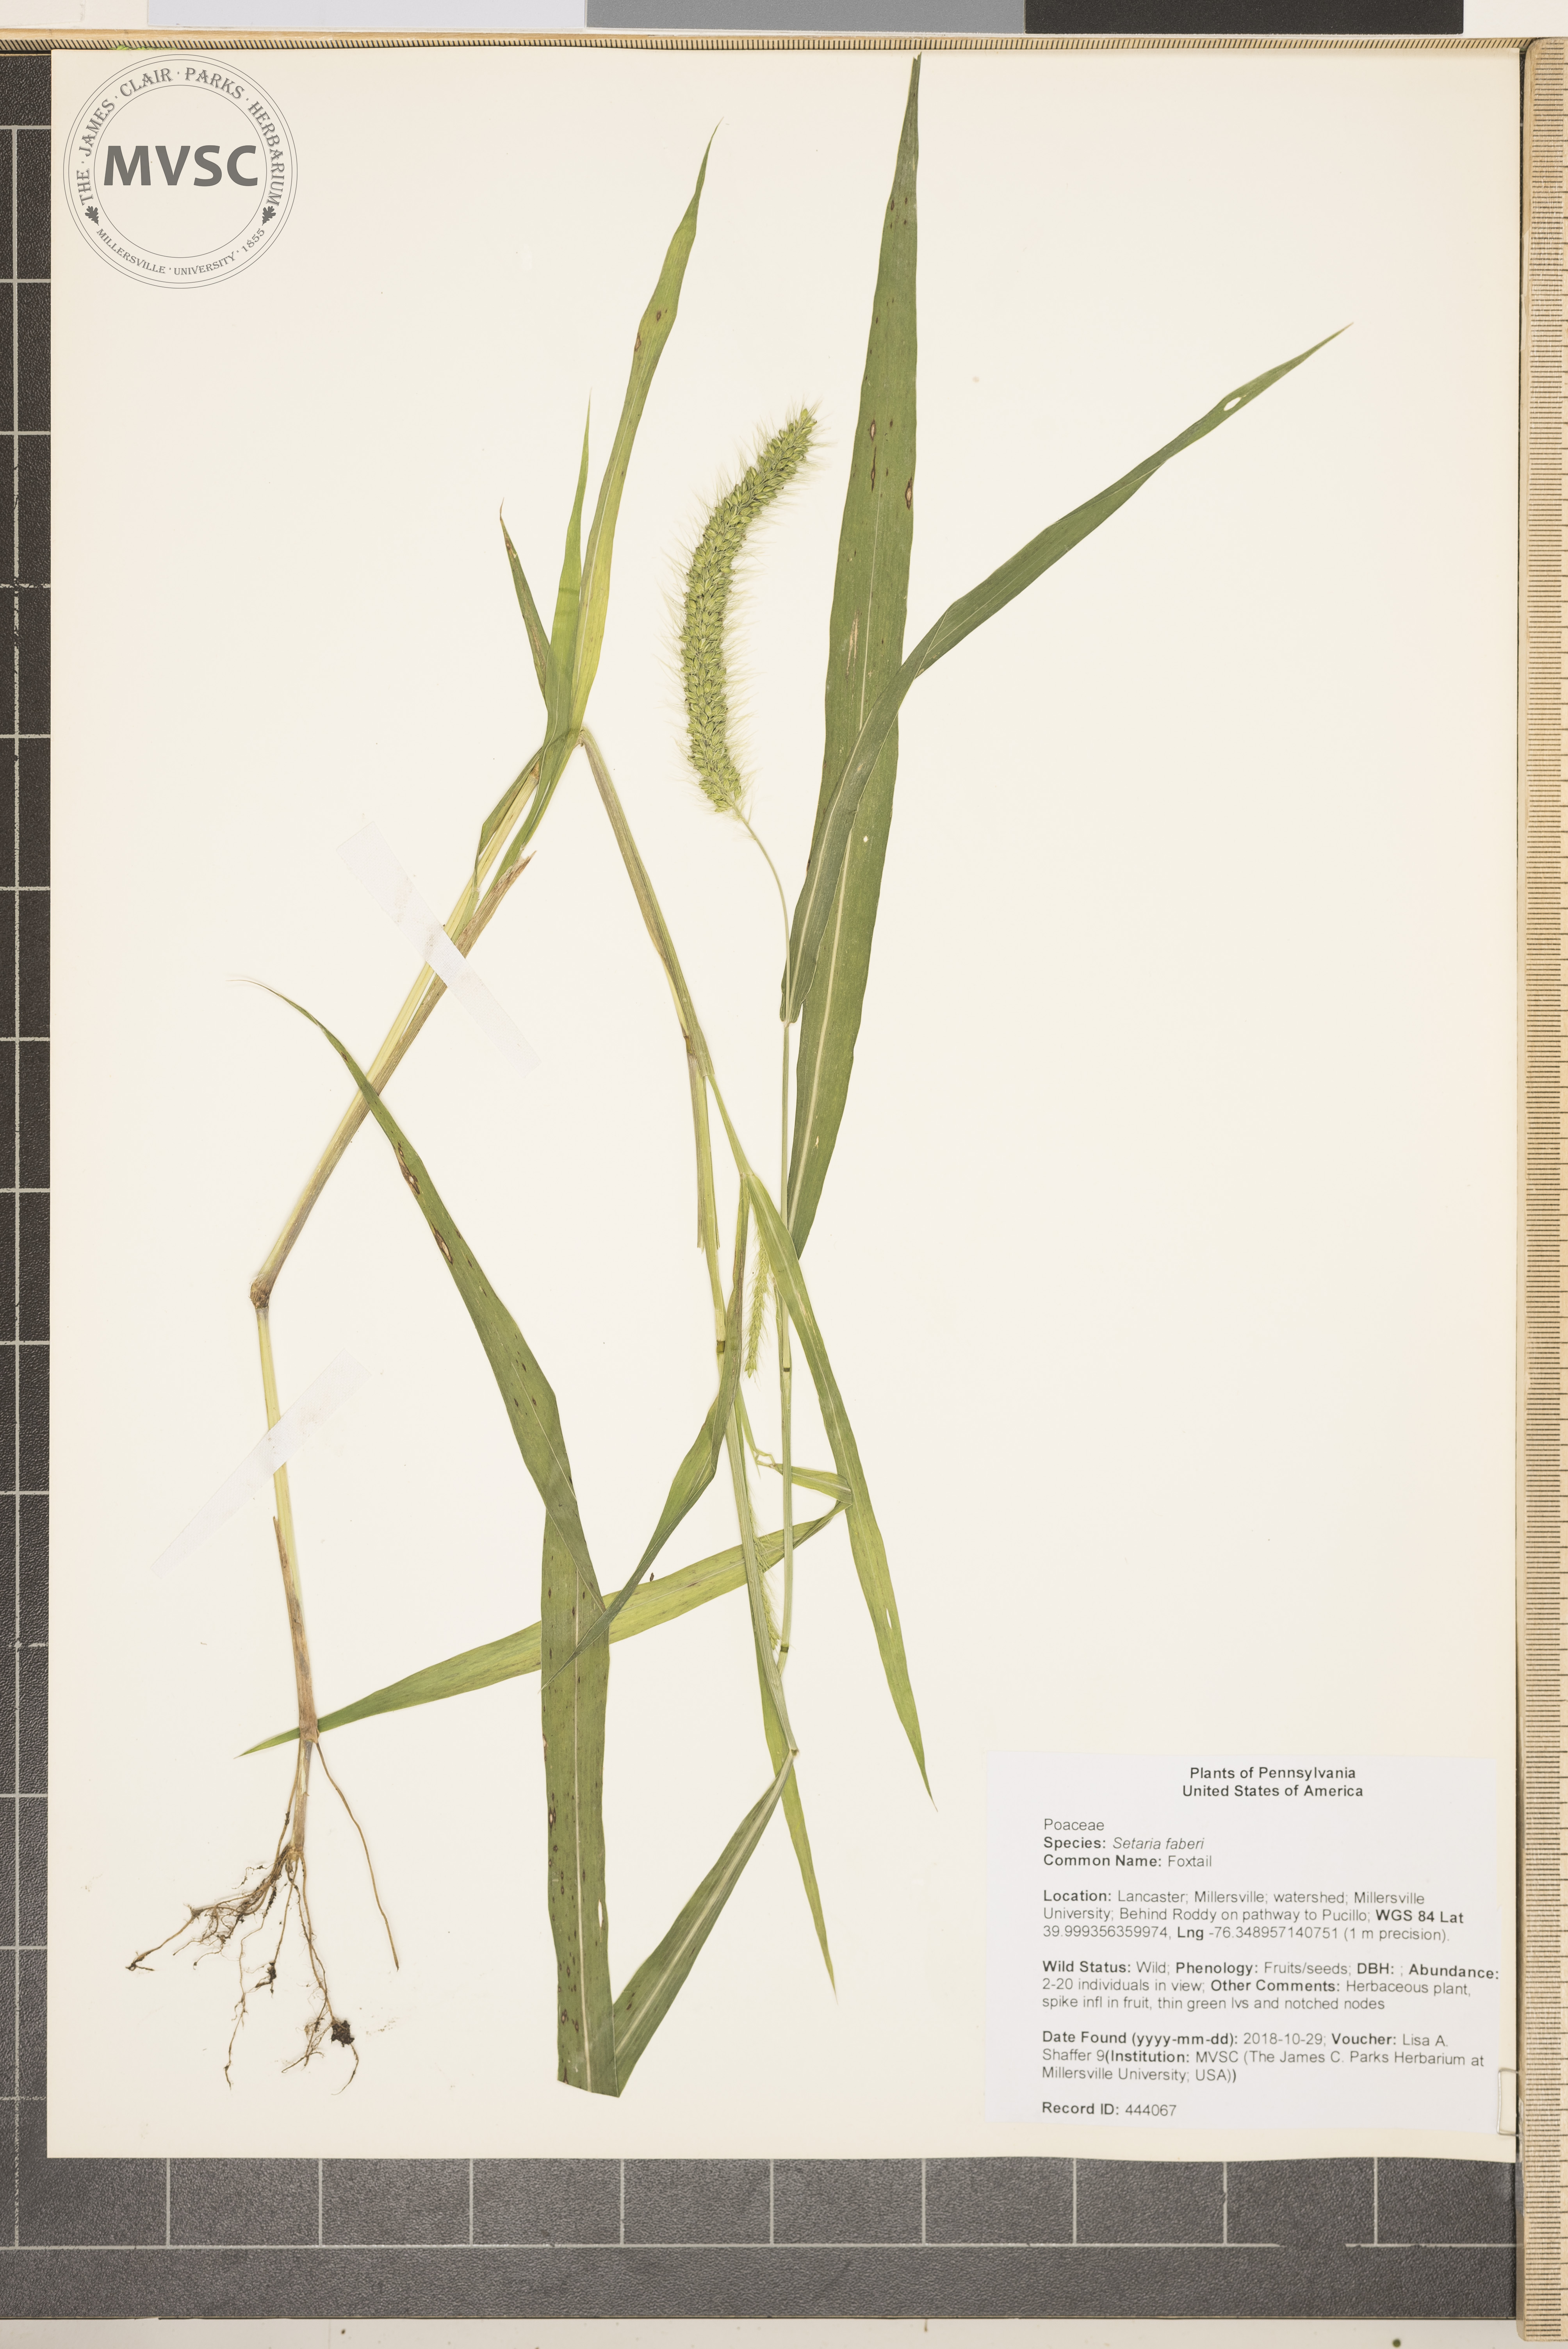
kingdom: Plantae
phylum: Tracheophyta
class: Liliopsida
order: Poales
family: Poaceae
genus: Setaria
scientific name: Setaria faberi
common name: Foxtail
